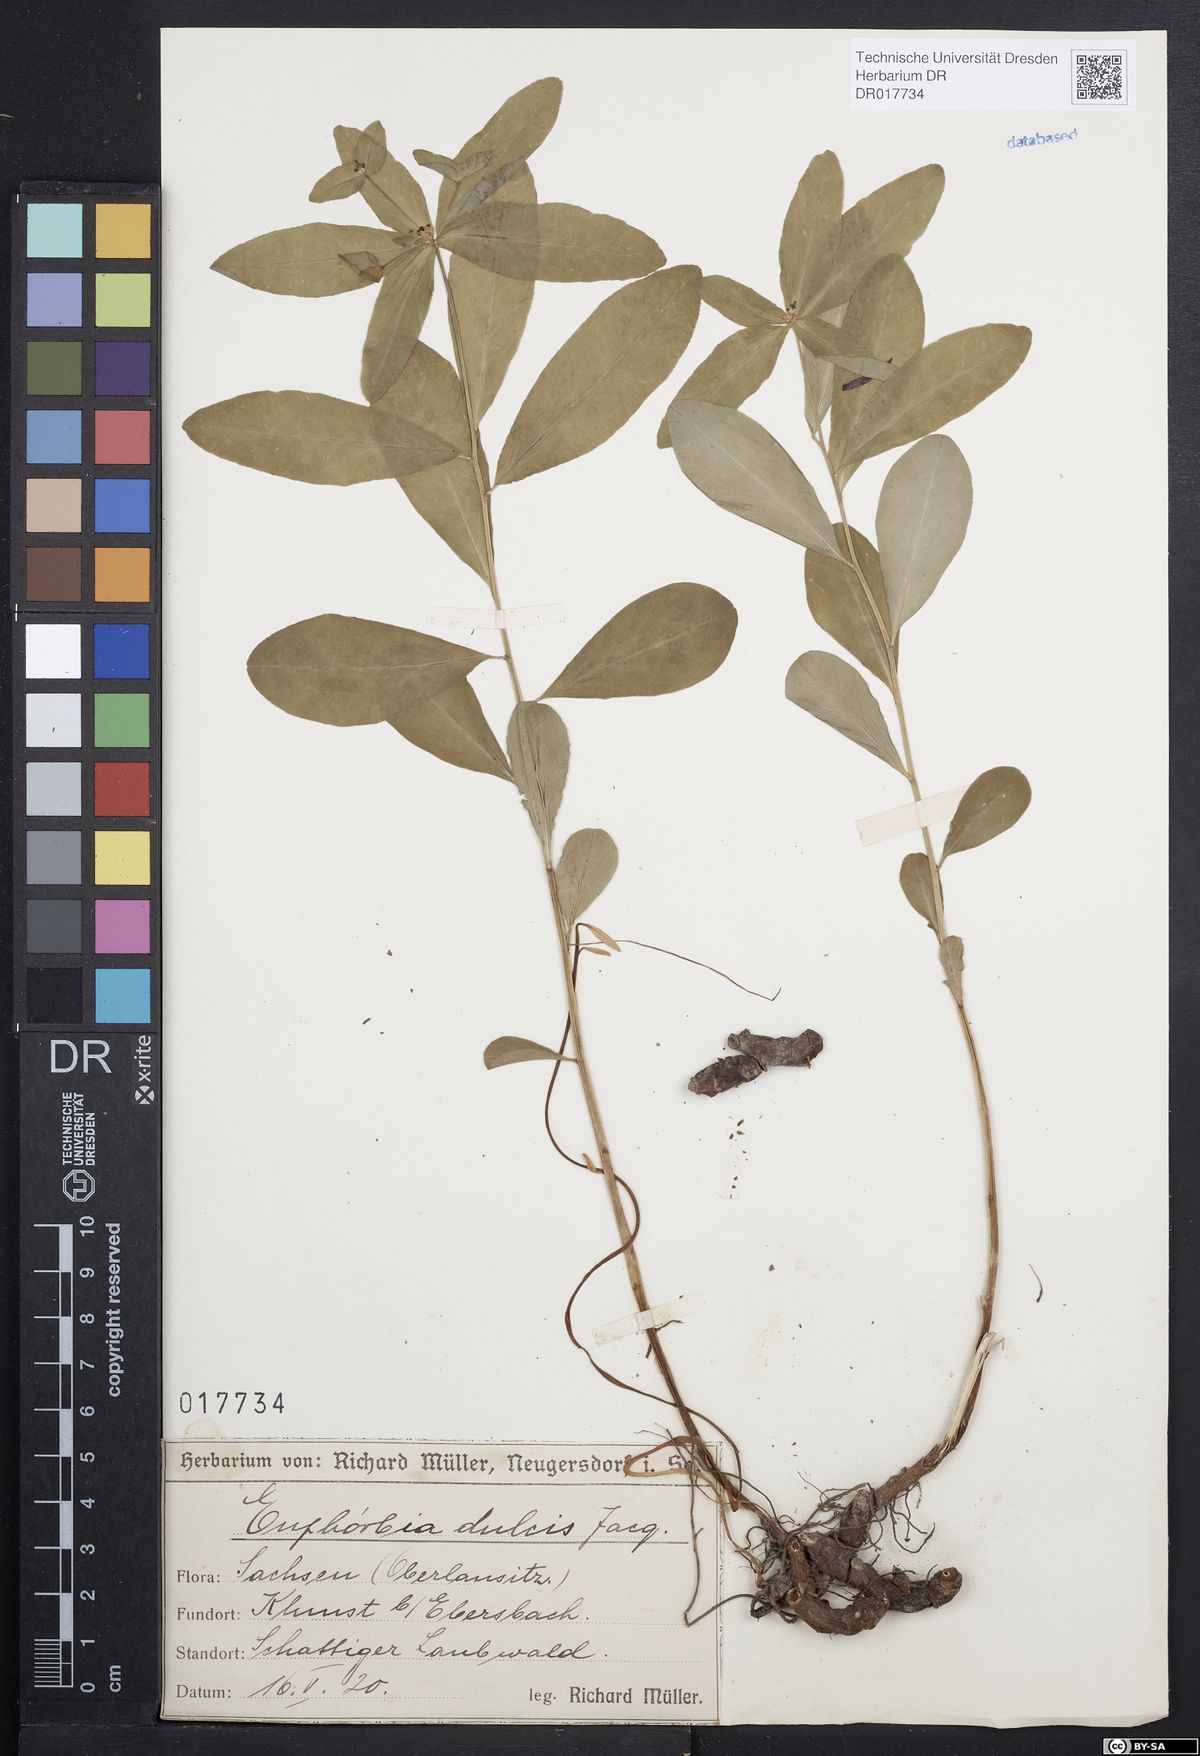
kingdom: Plantae
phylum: Tracheophyta
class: Magnoliopsida
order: Malpighiales
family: Euphorbiaceae
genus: Euphorbia
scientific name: Euphorbia dulcis
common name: Sweet spurge
